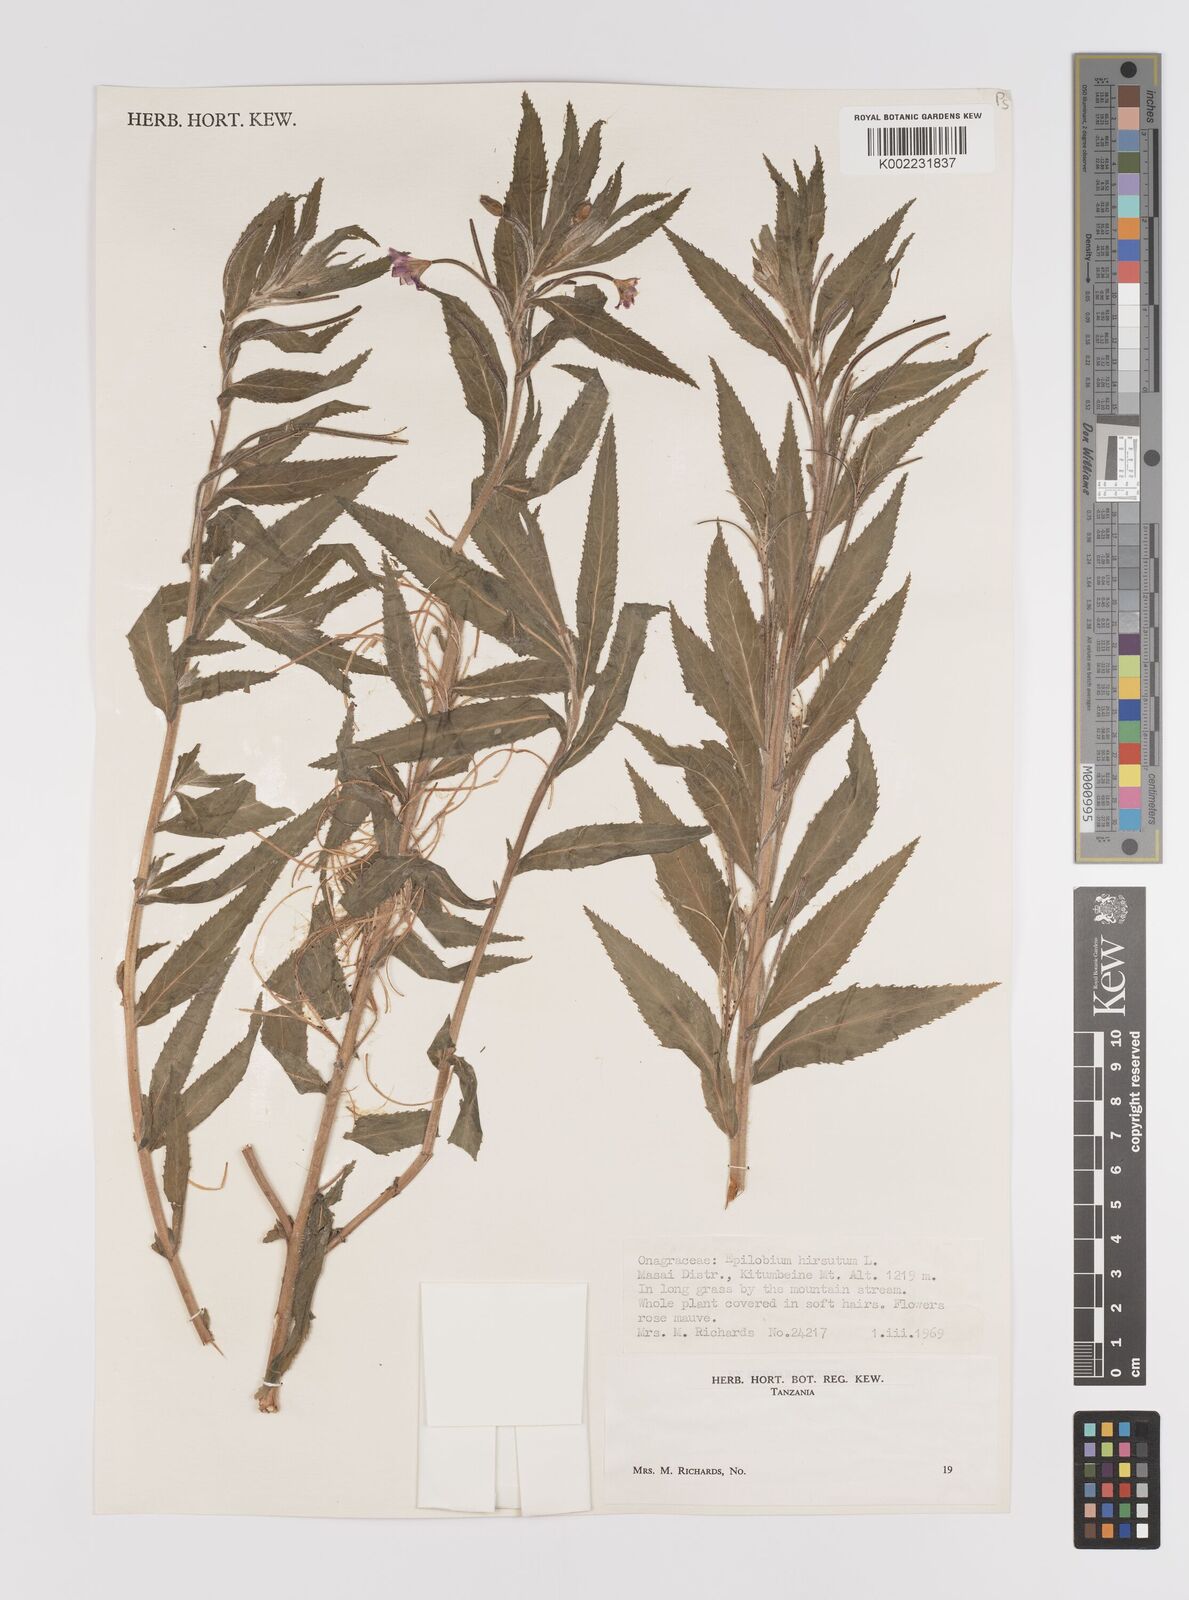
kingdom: Plantae
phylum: Tracheophyta
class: Magnoliopsida
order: Myrtales
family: Onagraceae
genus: Epilobium
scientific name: Epilobium hirsutum
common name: Great willowherb
